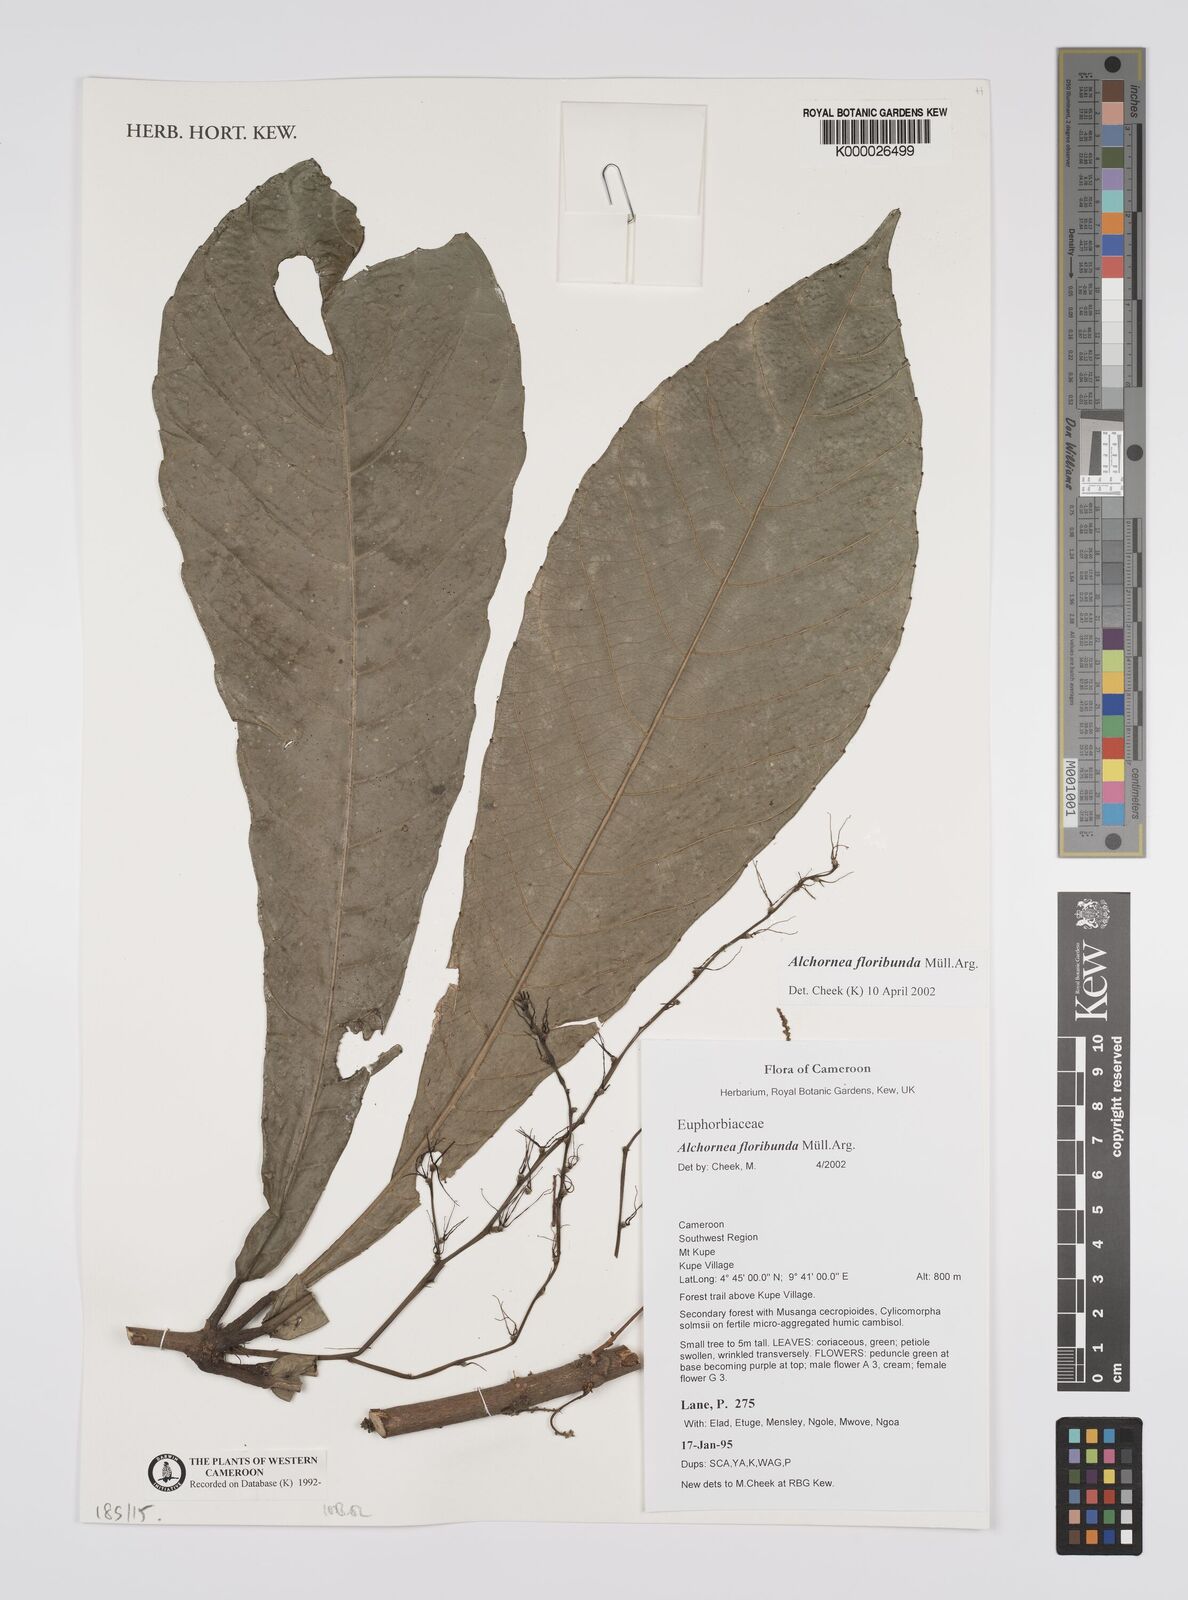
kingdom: Plantae
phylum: Tracheophyta
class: Magnoliopsida
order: Malpighiales
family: Euphorbiaceae
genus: Alchornea
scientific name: Alchornea
